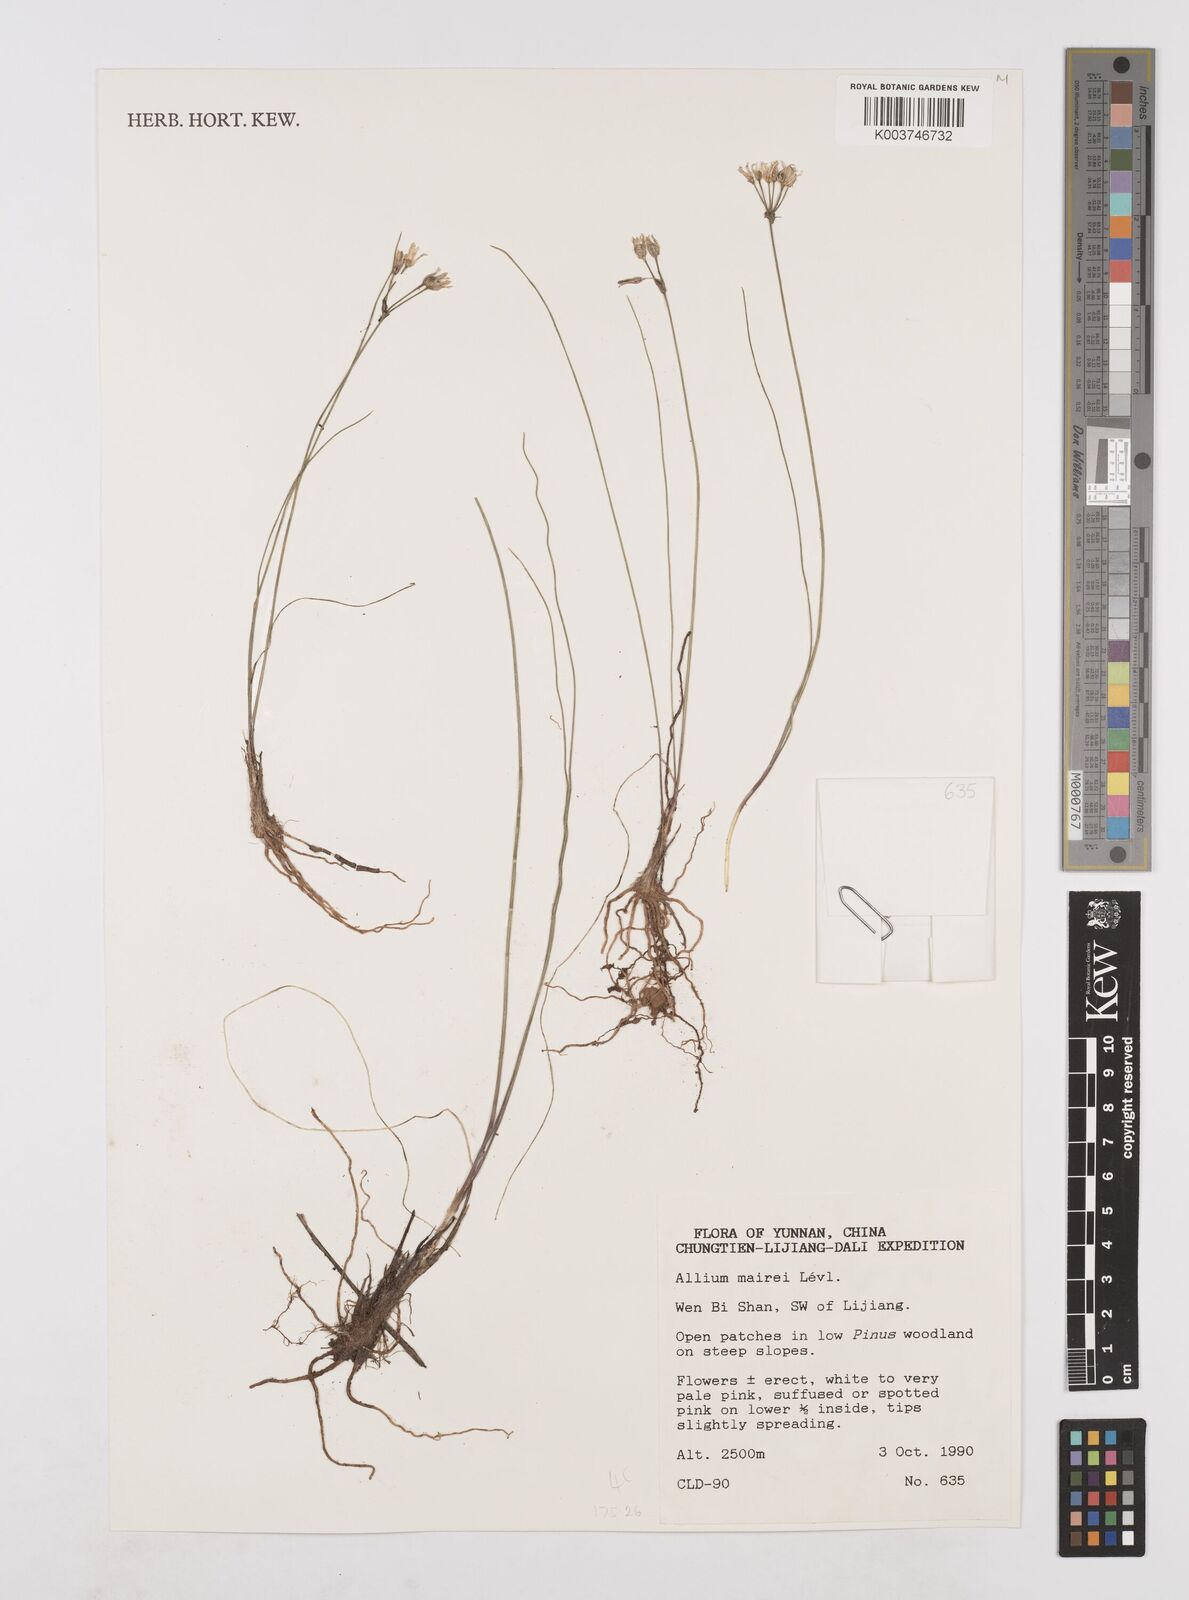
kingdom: Plantae
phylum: Tracheophyta
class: Liliopsida
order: Asparagales
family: Amaryllidaceae
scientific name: Amaryllidaceae
